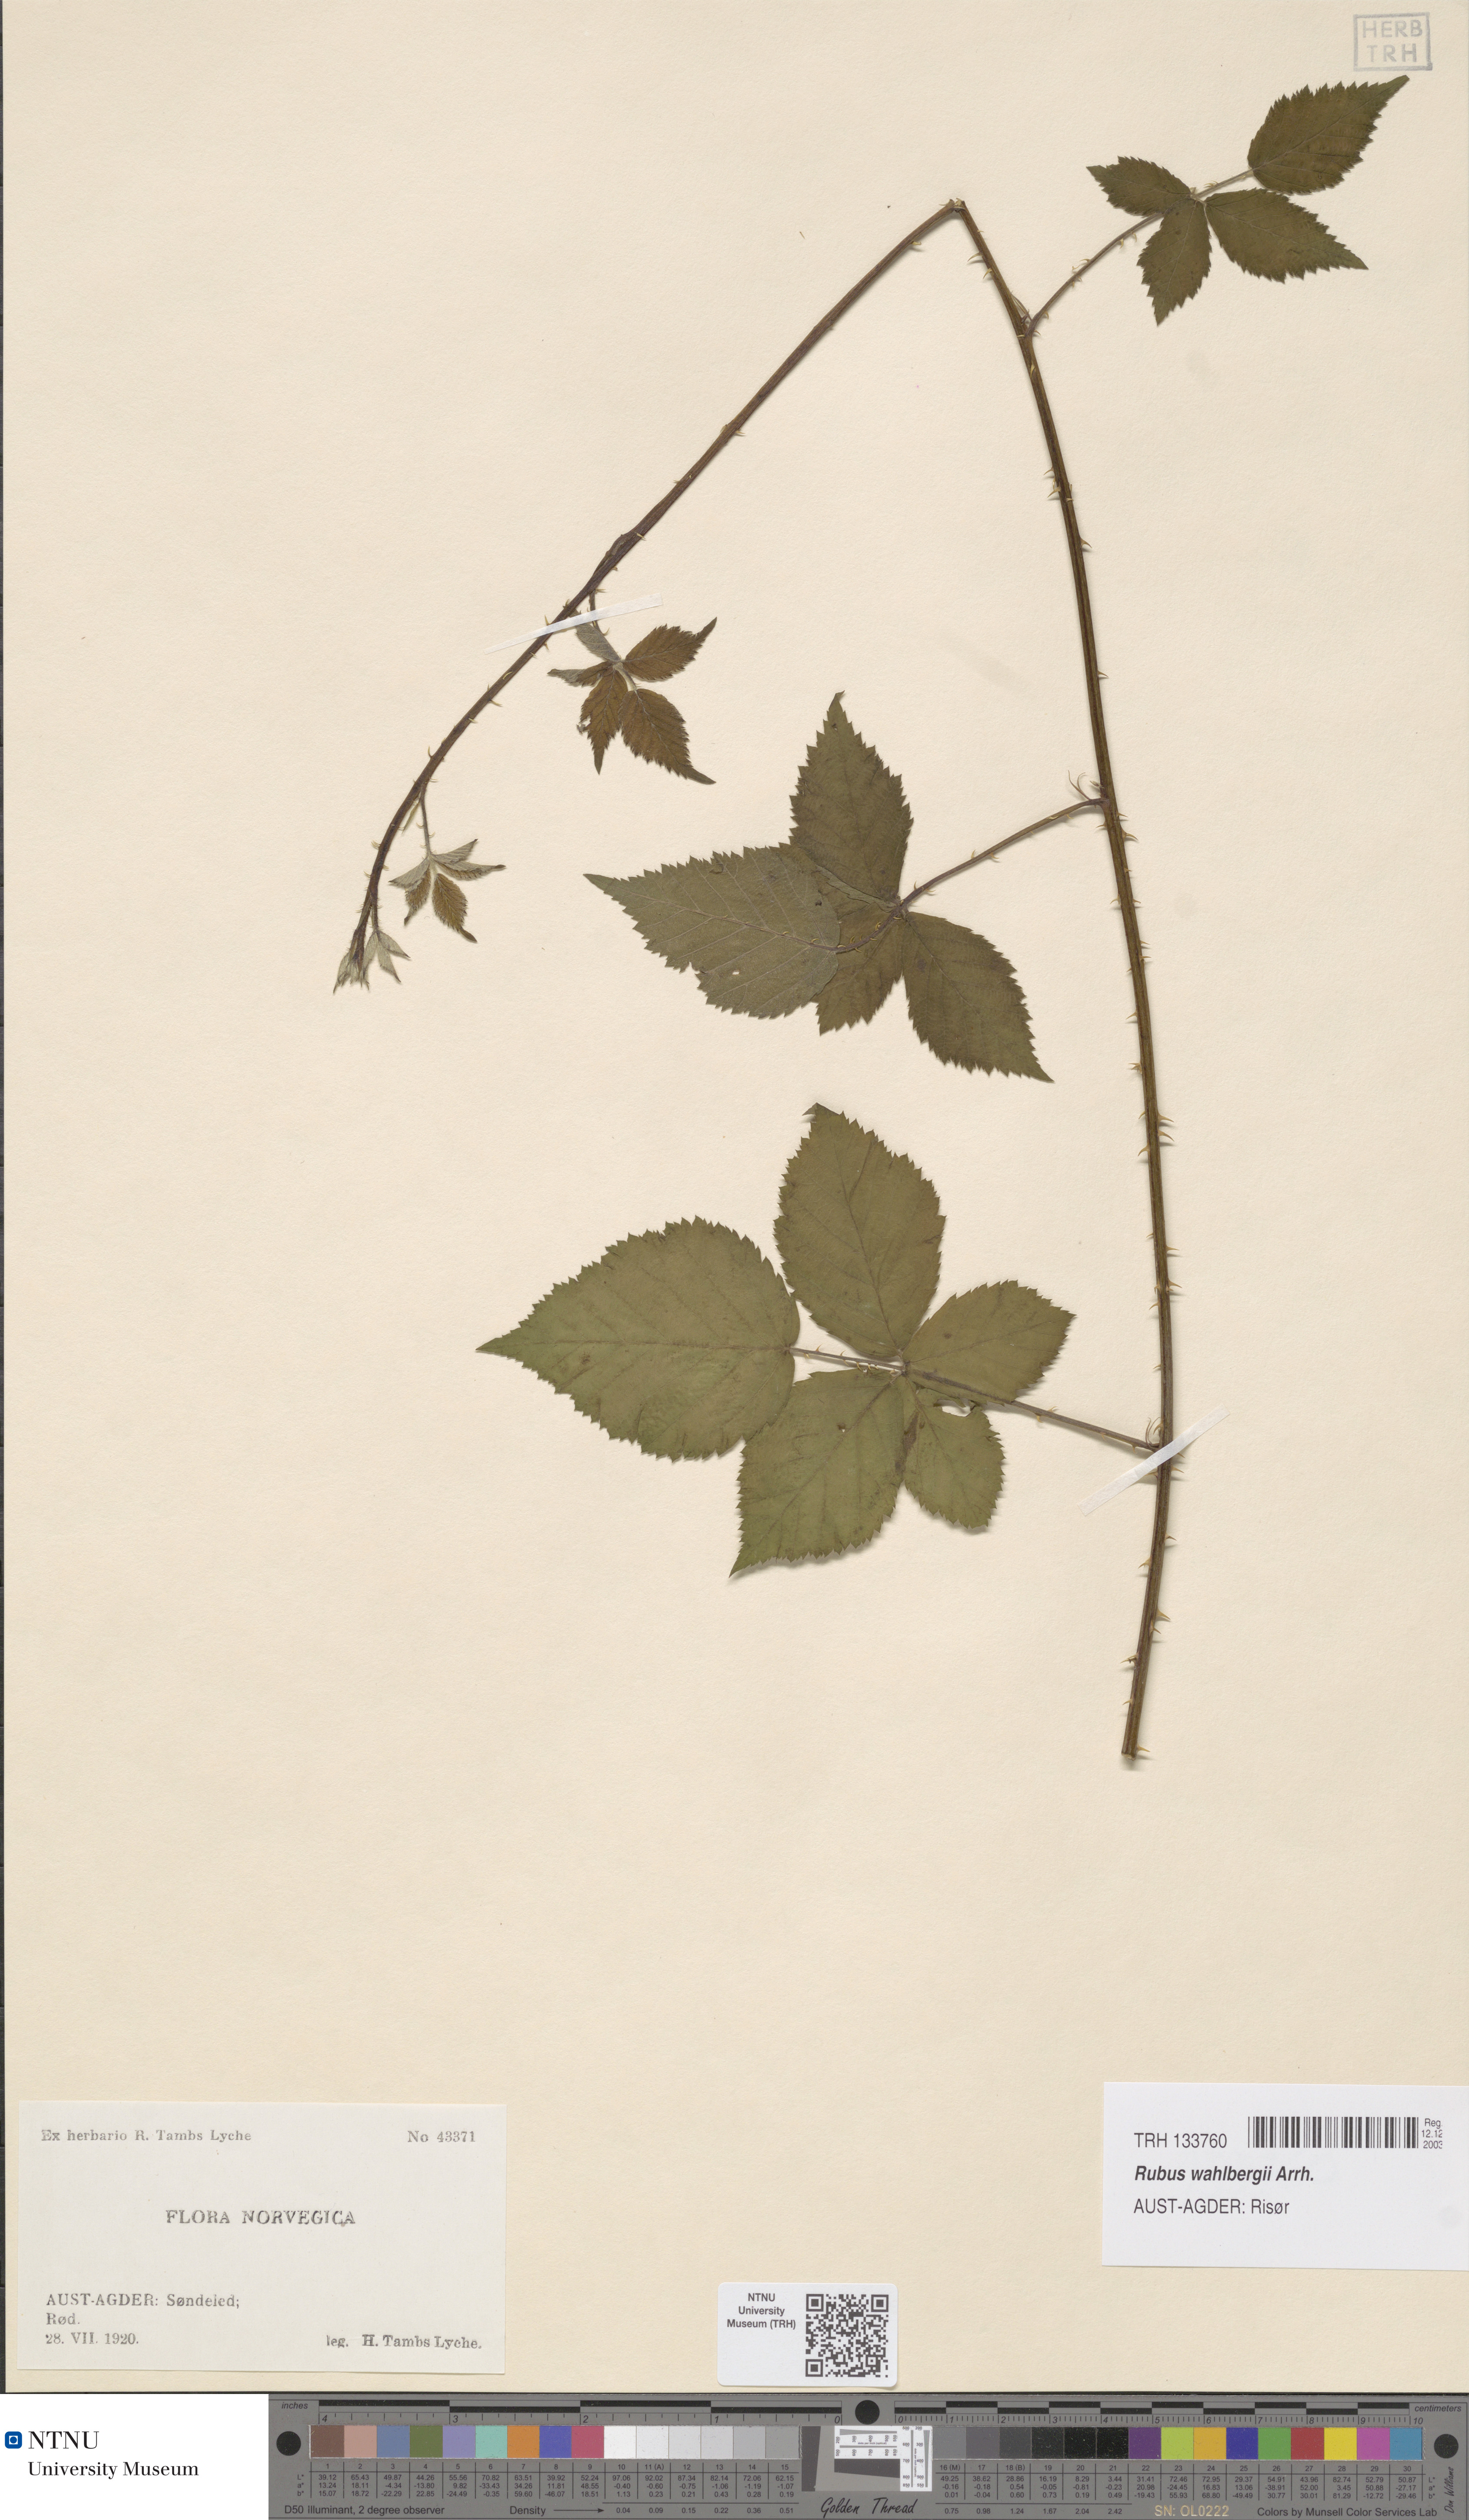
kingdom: Plantae
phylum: Tracheophyta
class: Magnoliopsida
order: Rosales
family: Rosaceae
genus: Rubus
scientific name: Rubus wahlbergii
